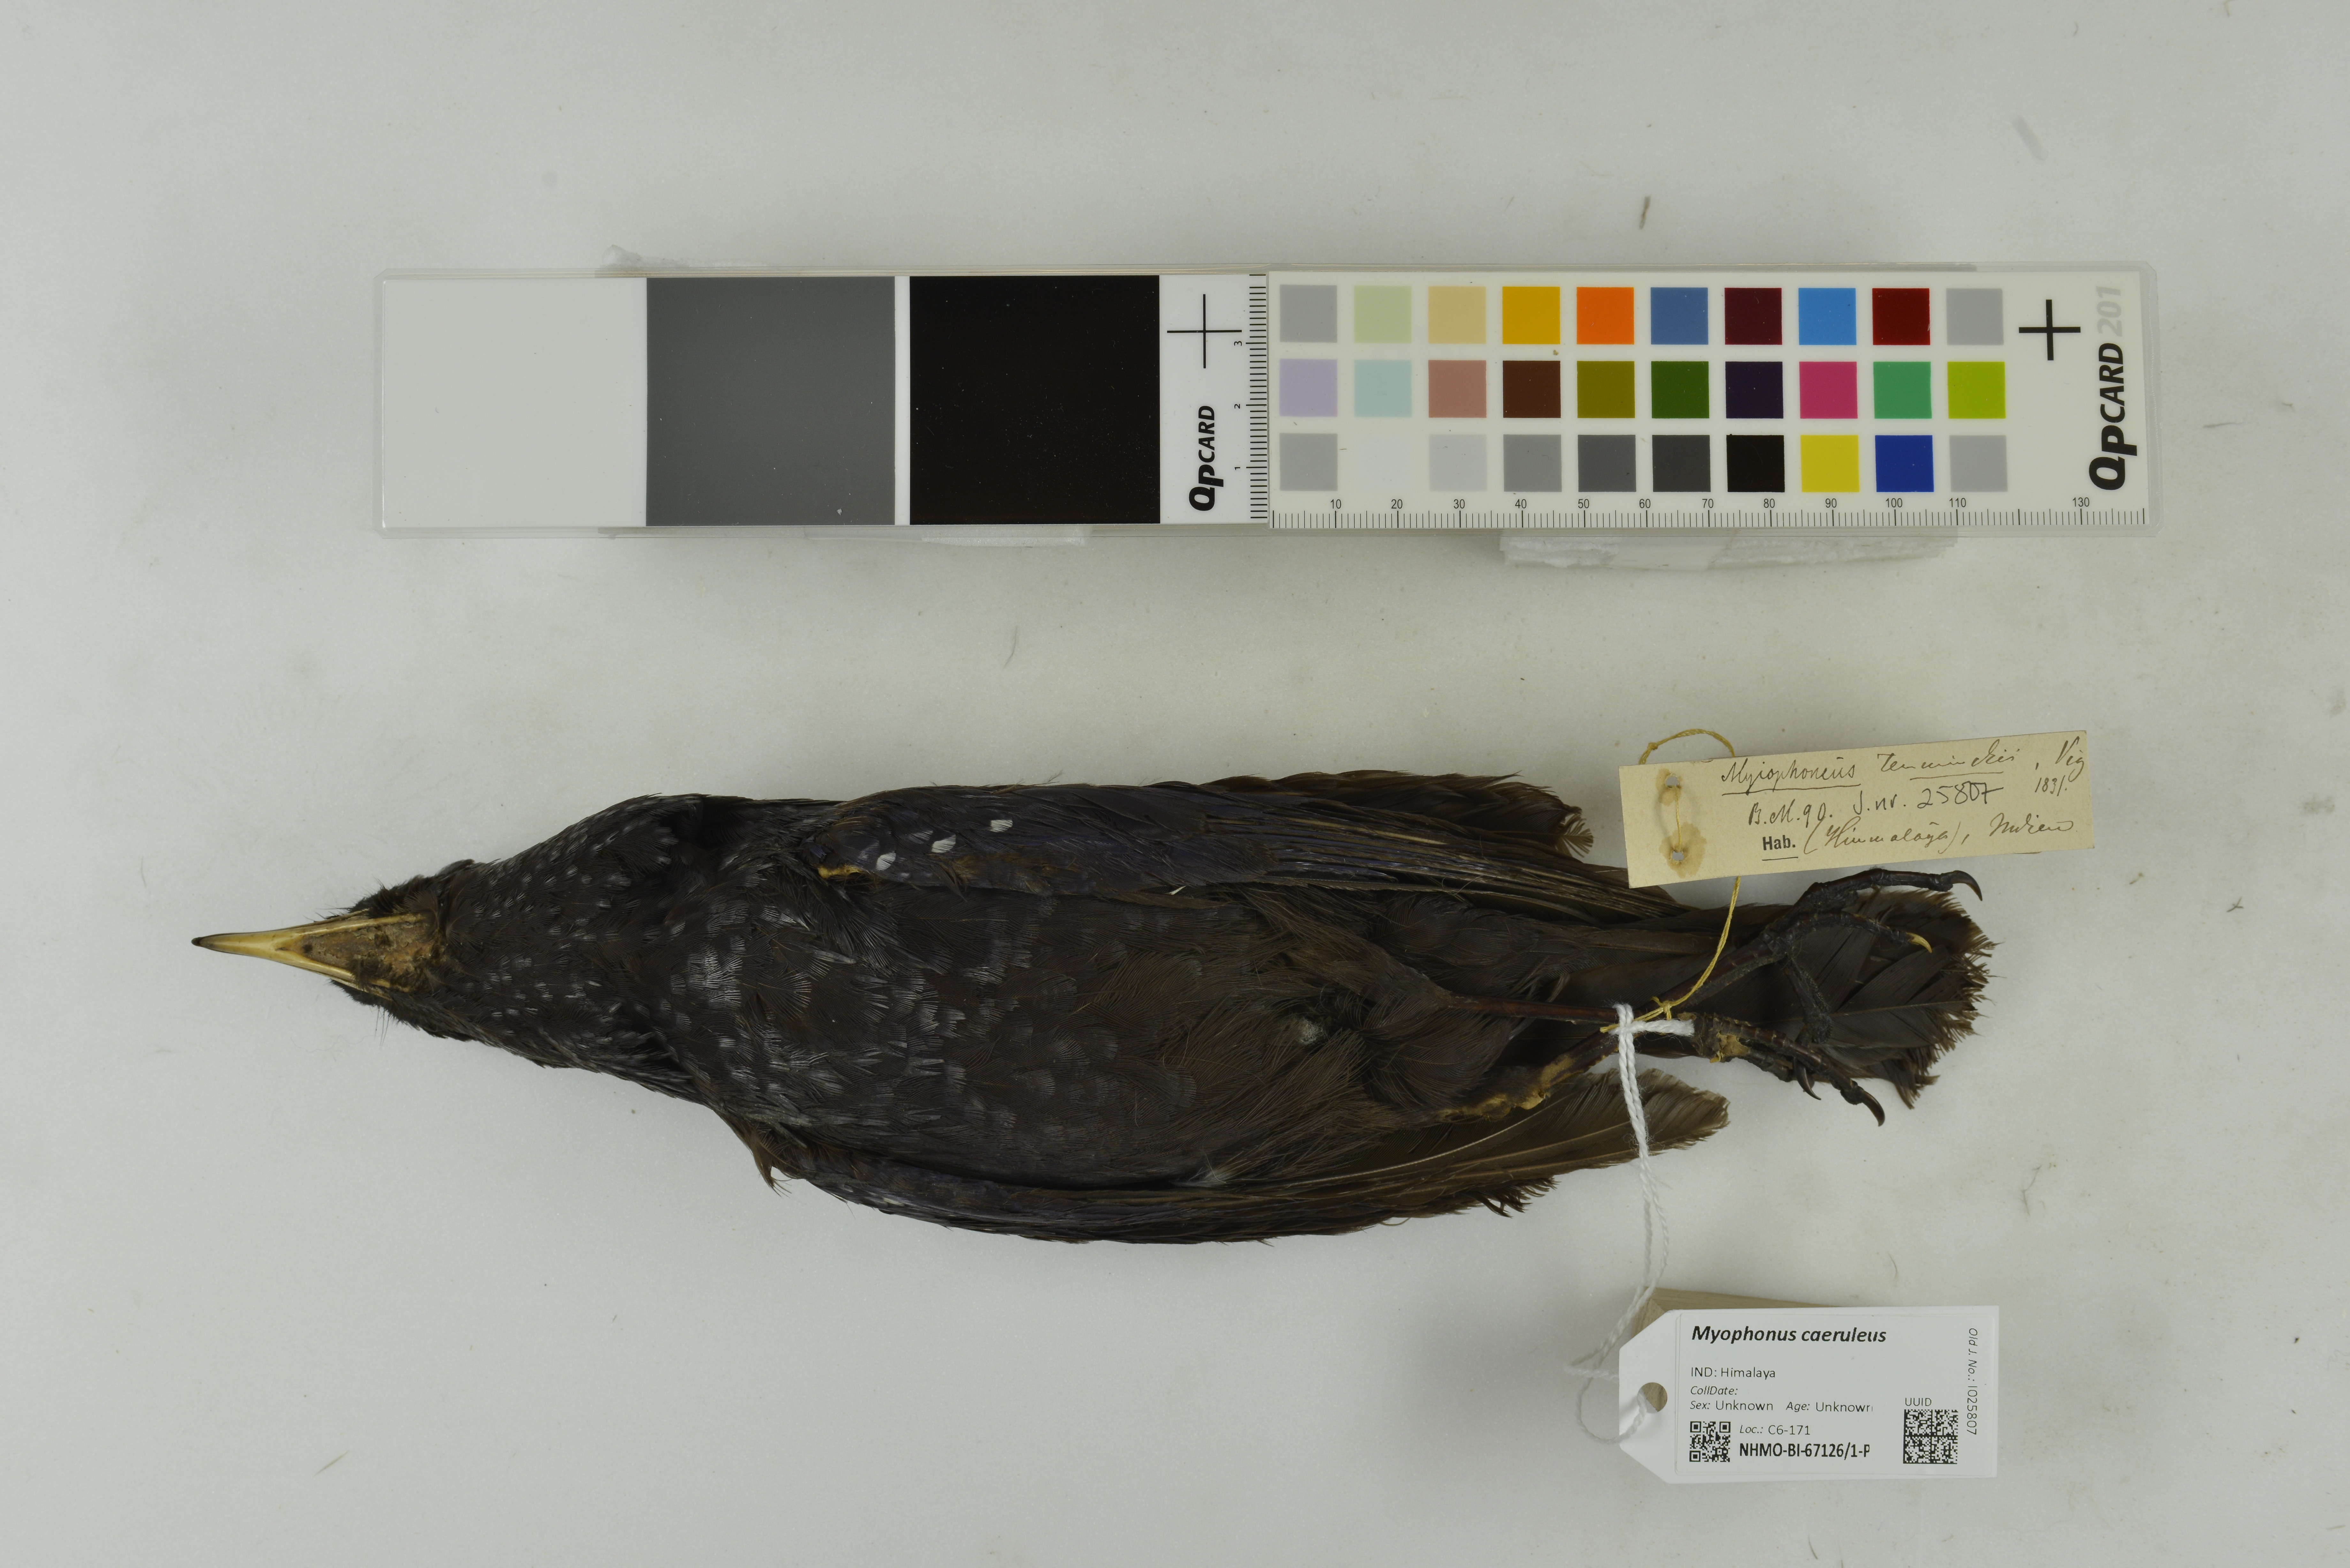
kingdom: Animalia
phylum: Chordata
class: Aves
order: Passeriformes
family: Muscicapidae
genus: Myophonus
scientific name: Myophonus caeruleus
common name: Blue whistling-thrush
